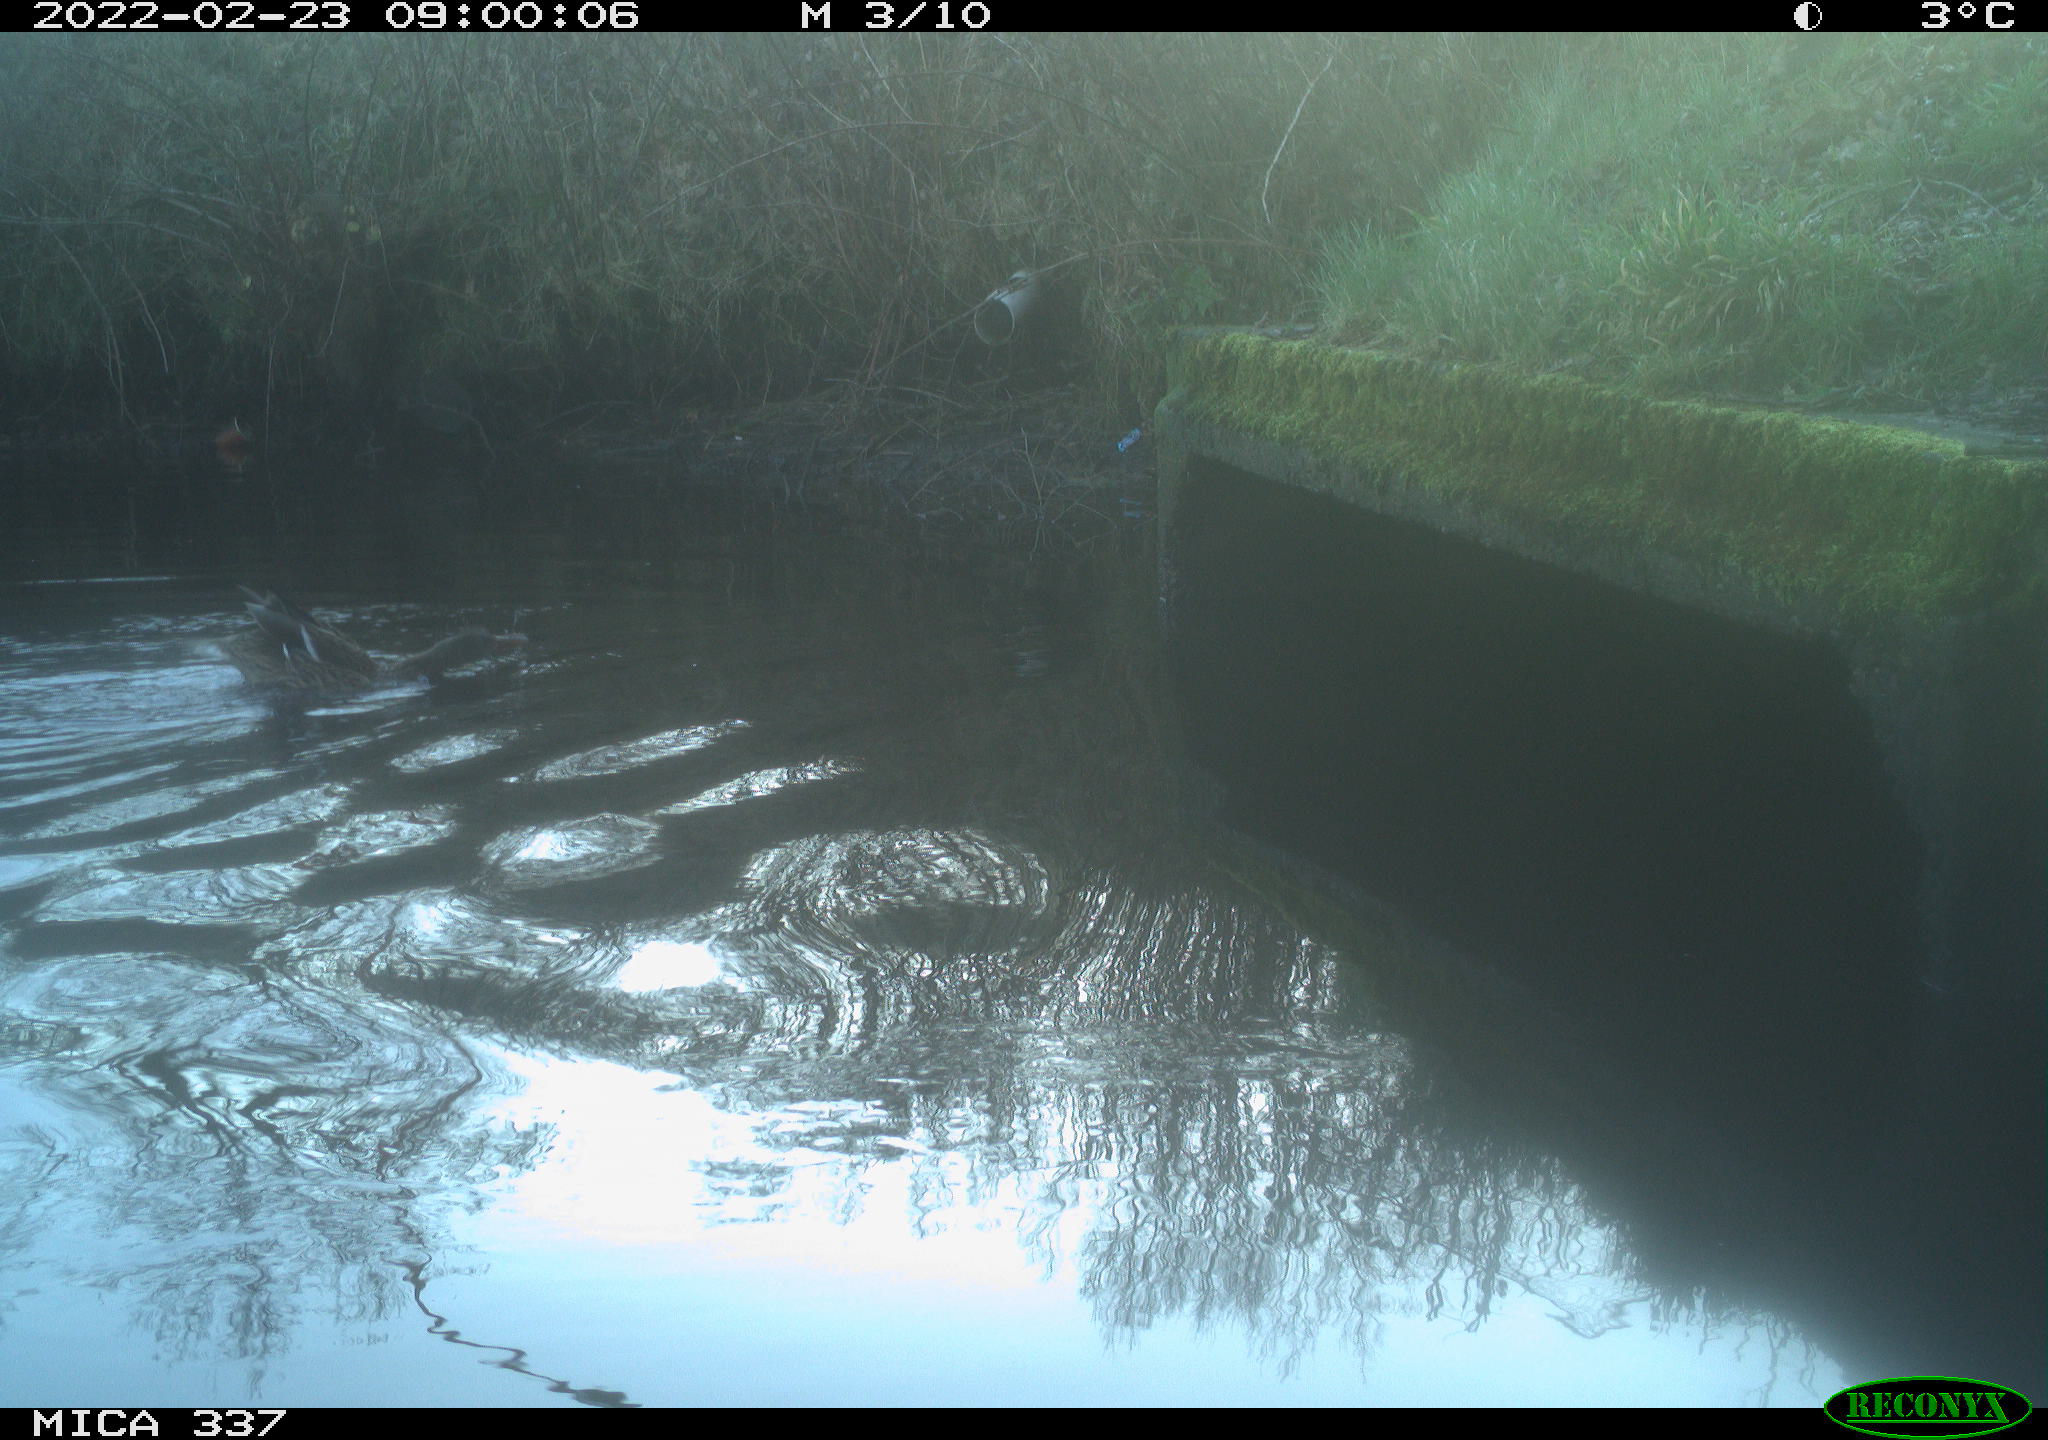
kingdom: Animalia
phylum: Chordata
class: Aves
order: Anseriformes
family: Anatidae
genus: Anas
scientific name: Anas platyrhynchos
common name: Mallard
